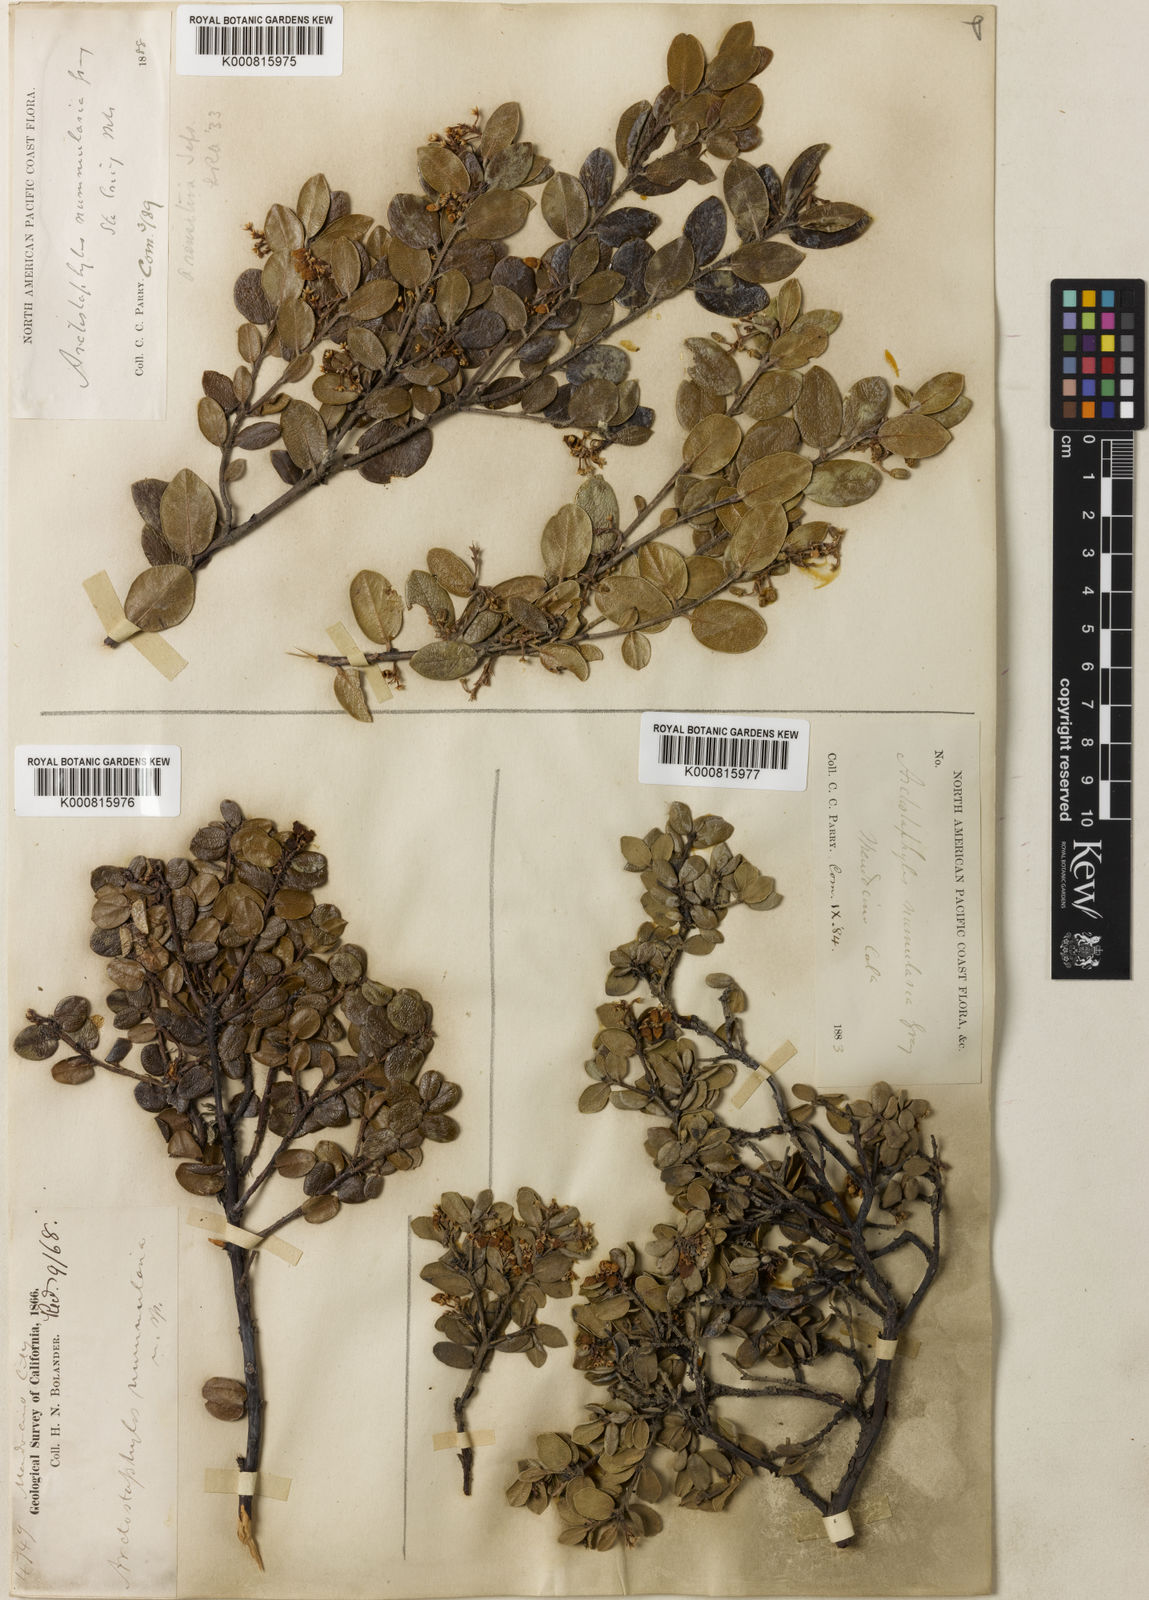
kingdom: Plantae
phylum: Tracheophyta
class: Magnoliopsida
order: Ericales
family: Ericaceae
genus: Arctostaphylos
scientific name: Arctostaphylos nummularia
